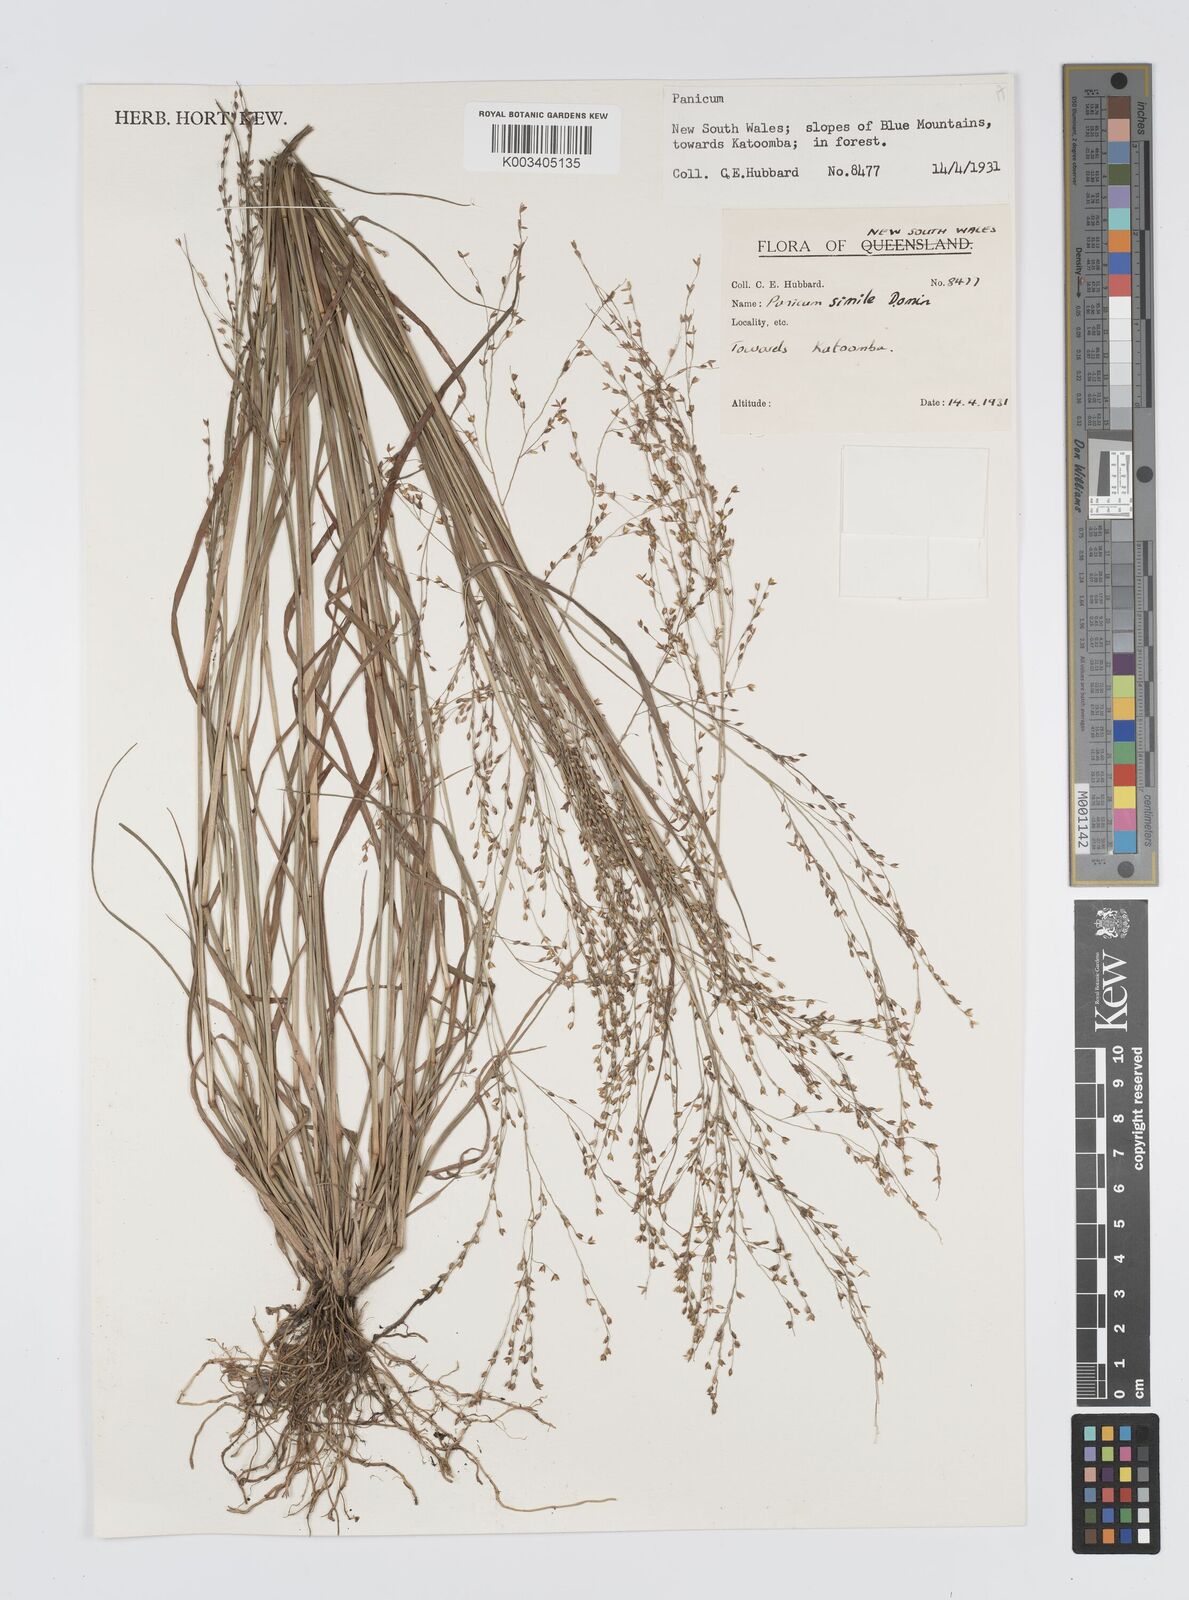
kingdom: Plantae
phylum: Tracheophyta
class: Liliopsida
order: Poales
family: Poaceae
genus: Panicum
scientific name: Panicum simile
